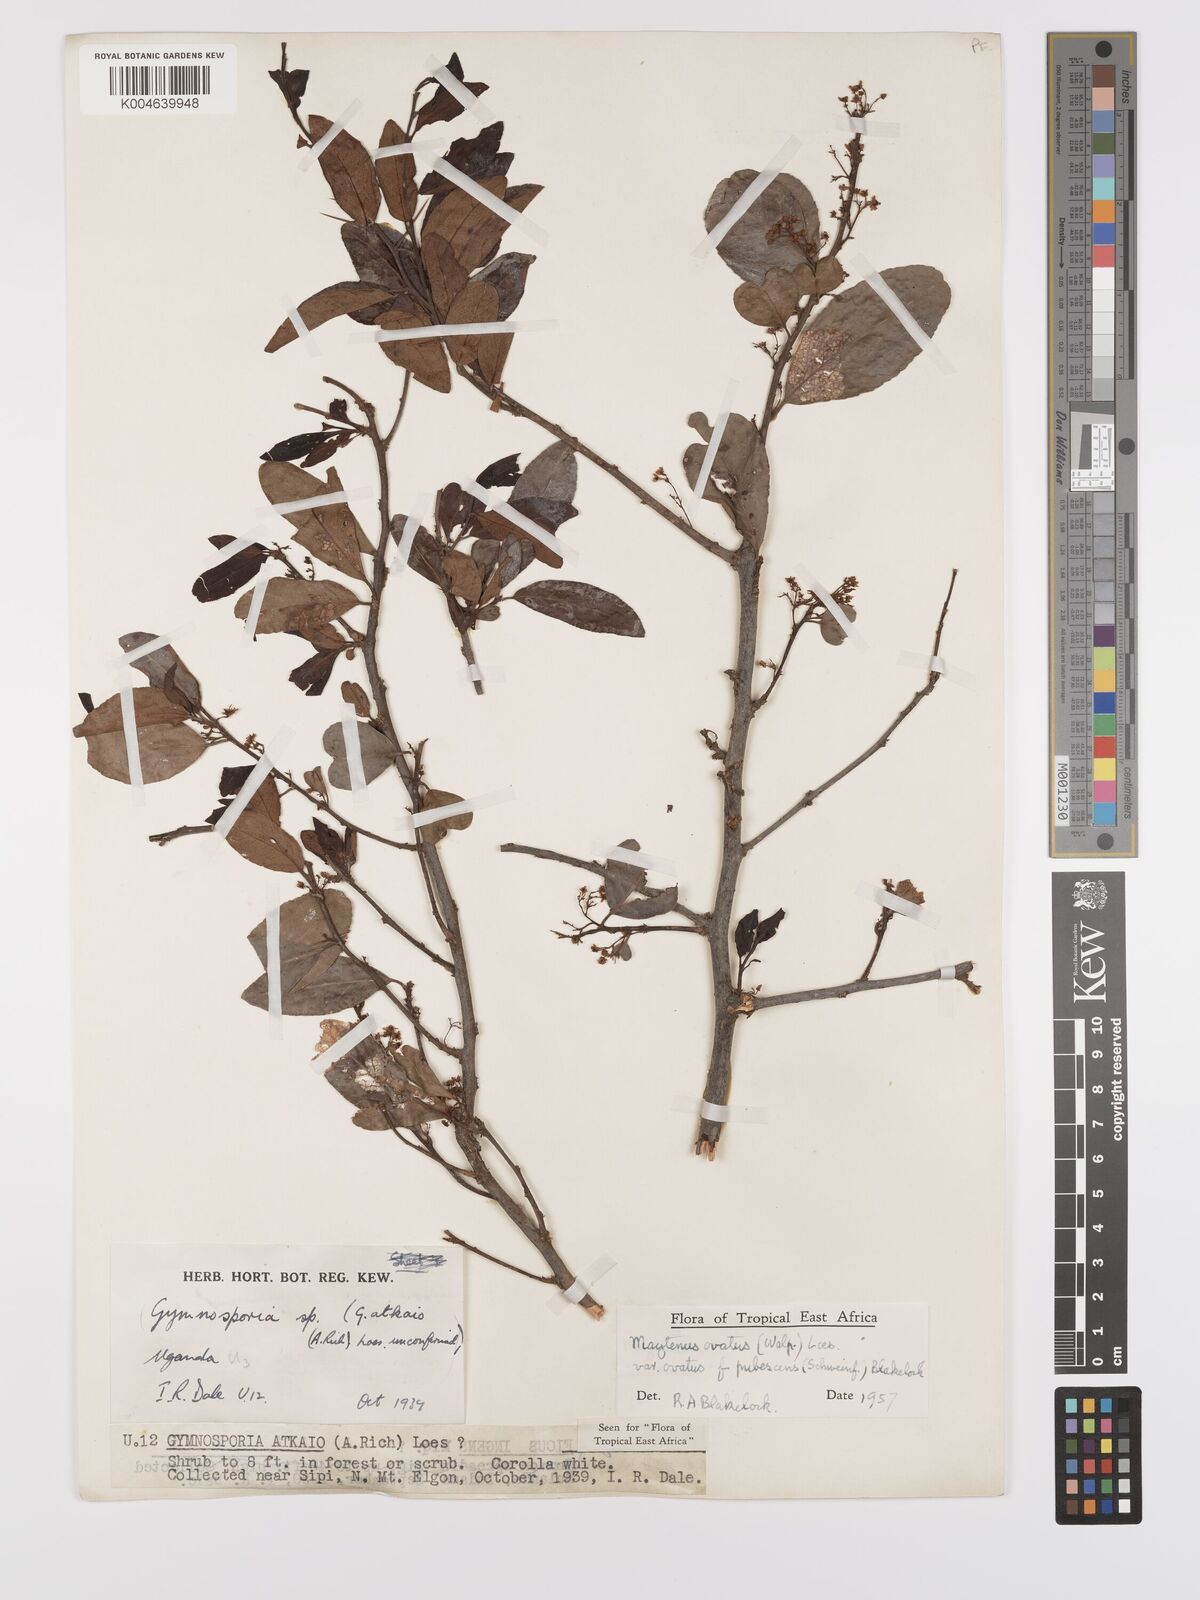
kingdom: Plantae
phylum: Tracheophyta
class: Magnoliopsida
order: Celastrales
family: Celastraceae
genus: Gymnosporia
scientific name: Gymnosporia
